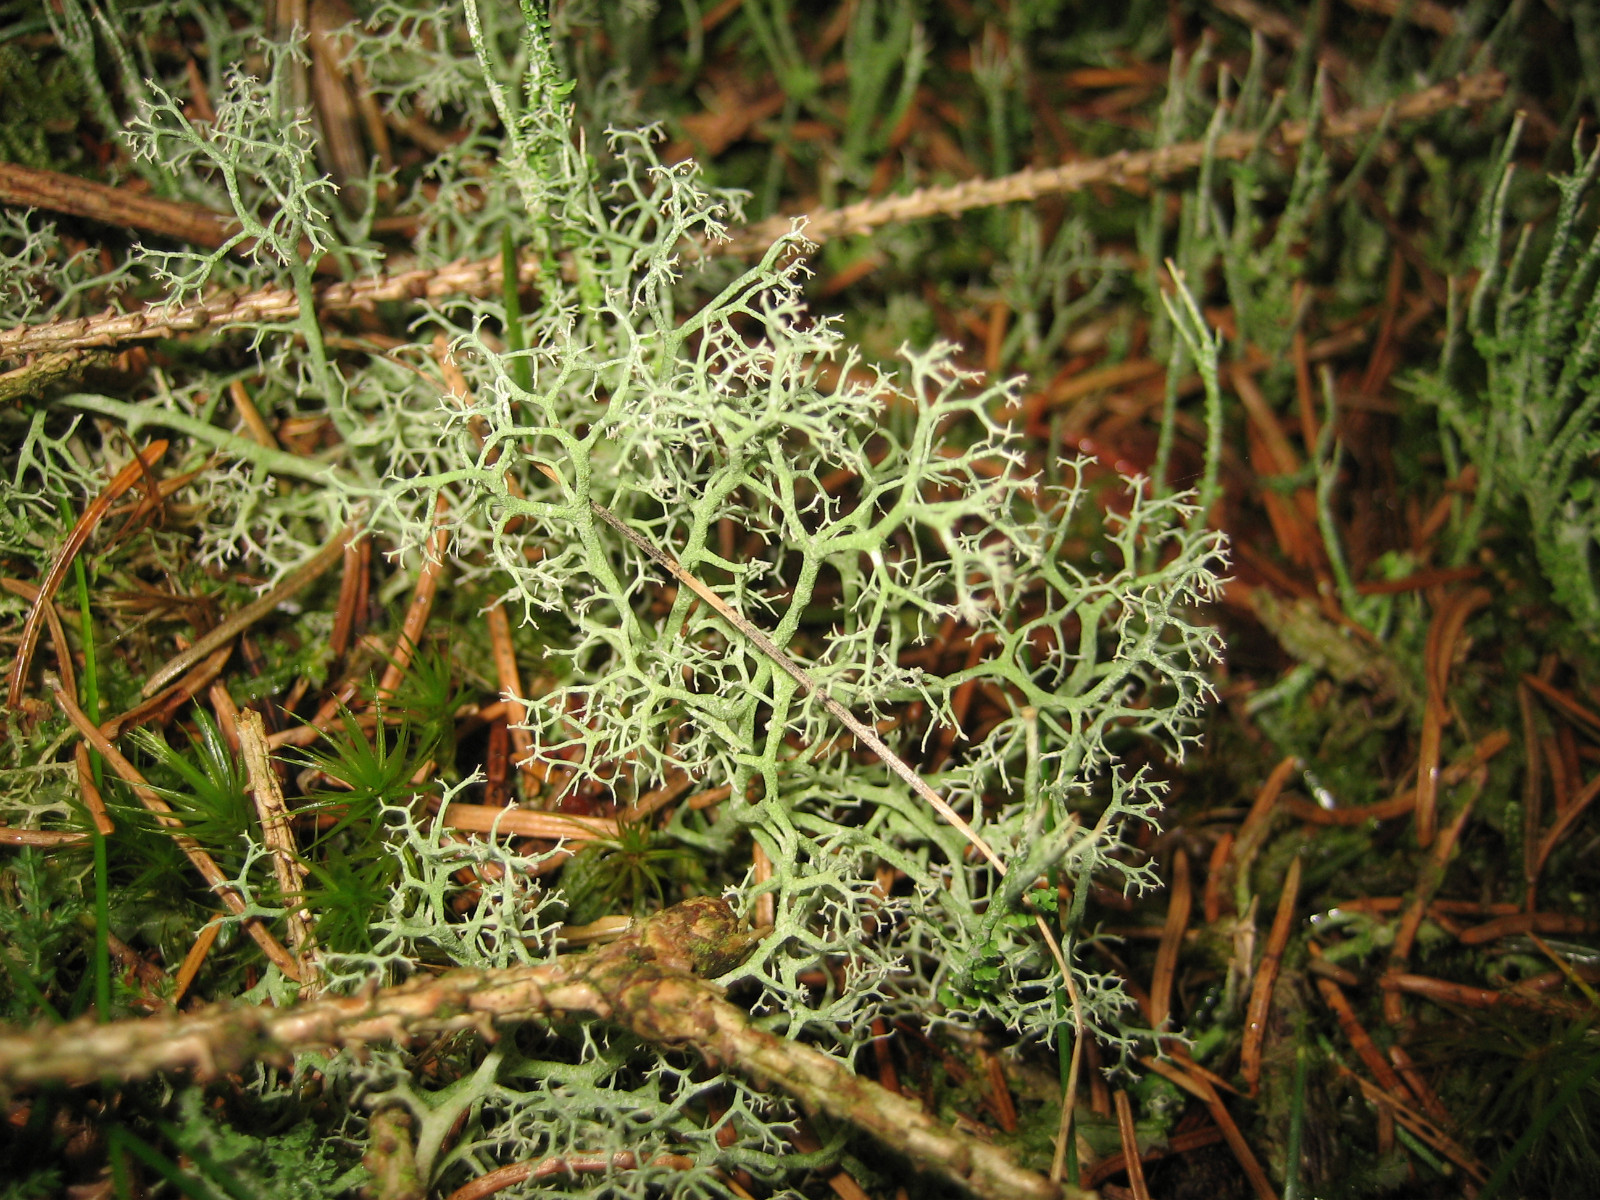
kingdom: Fungi
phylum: Ascomycota
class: Lecanoromycetes
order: Lecanorales
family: Cladoniaceae
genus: Cladonia
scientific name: Cladonia portentosa
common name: hede-rensdyrlav
